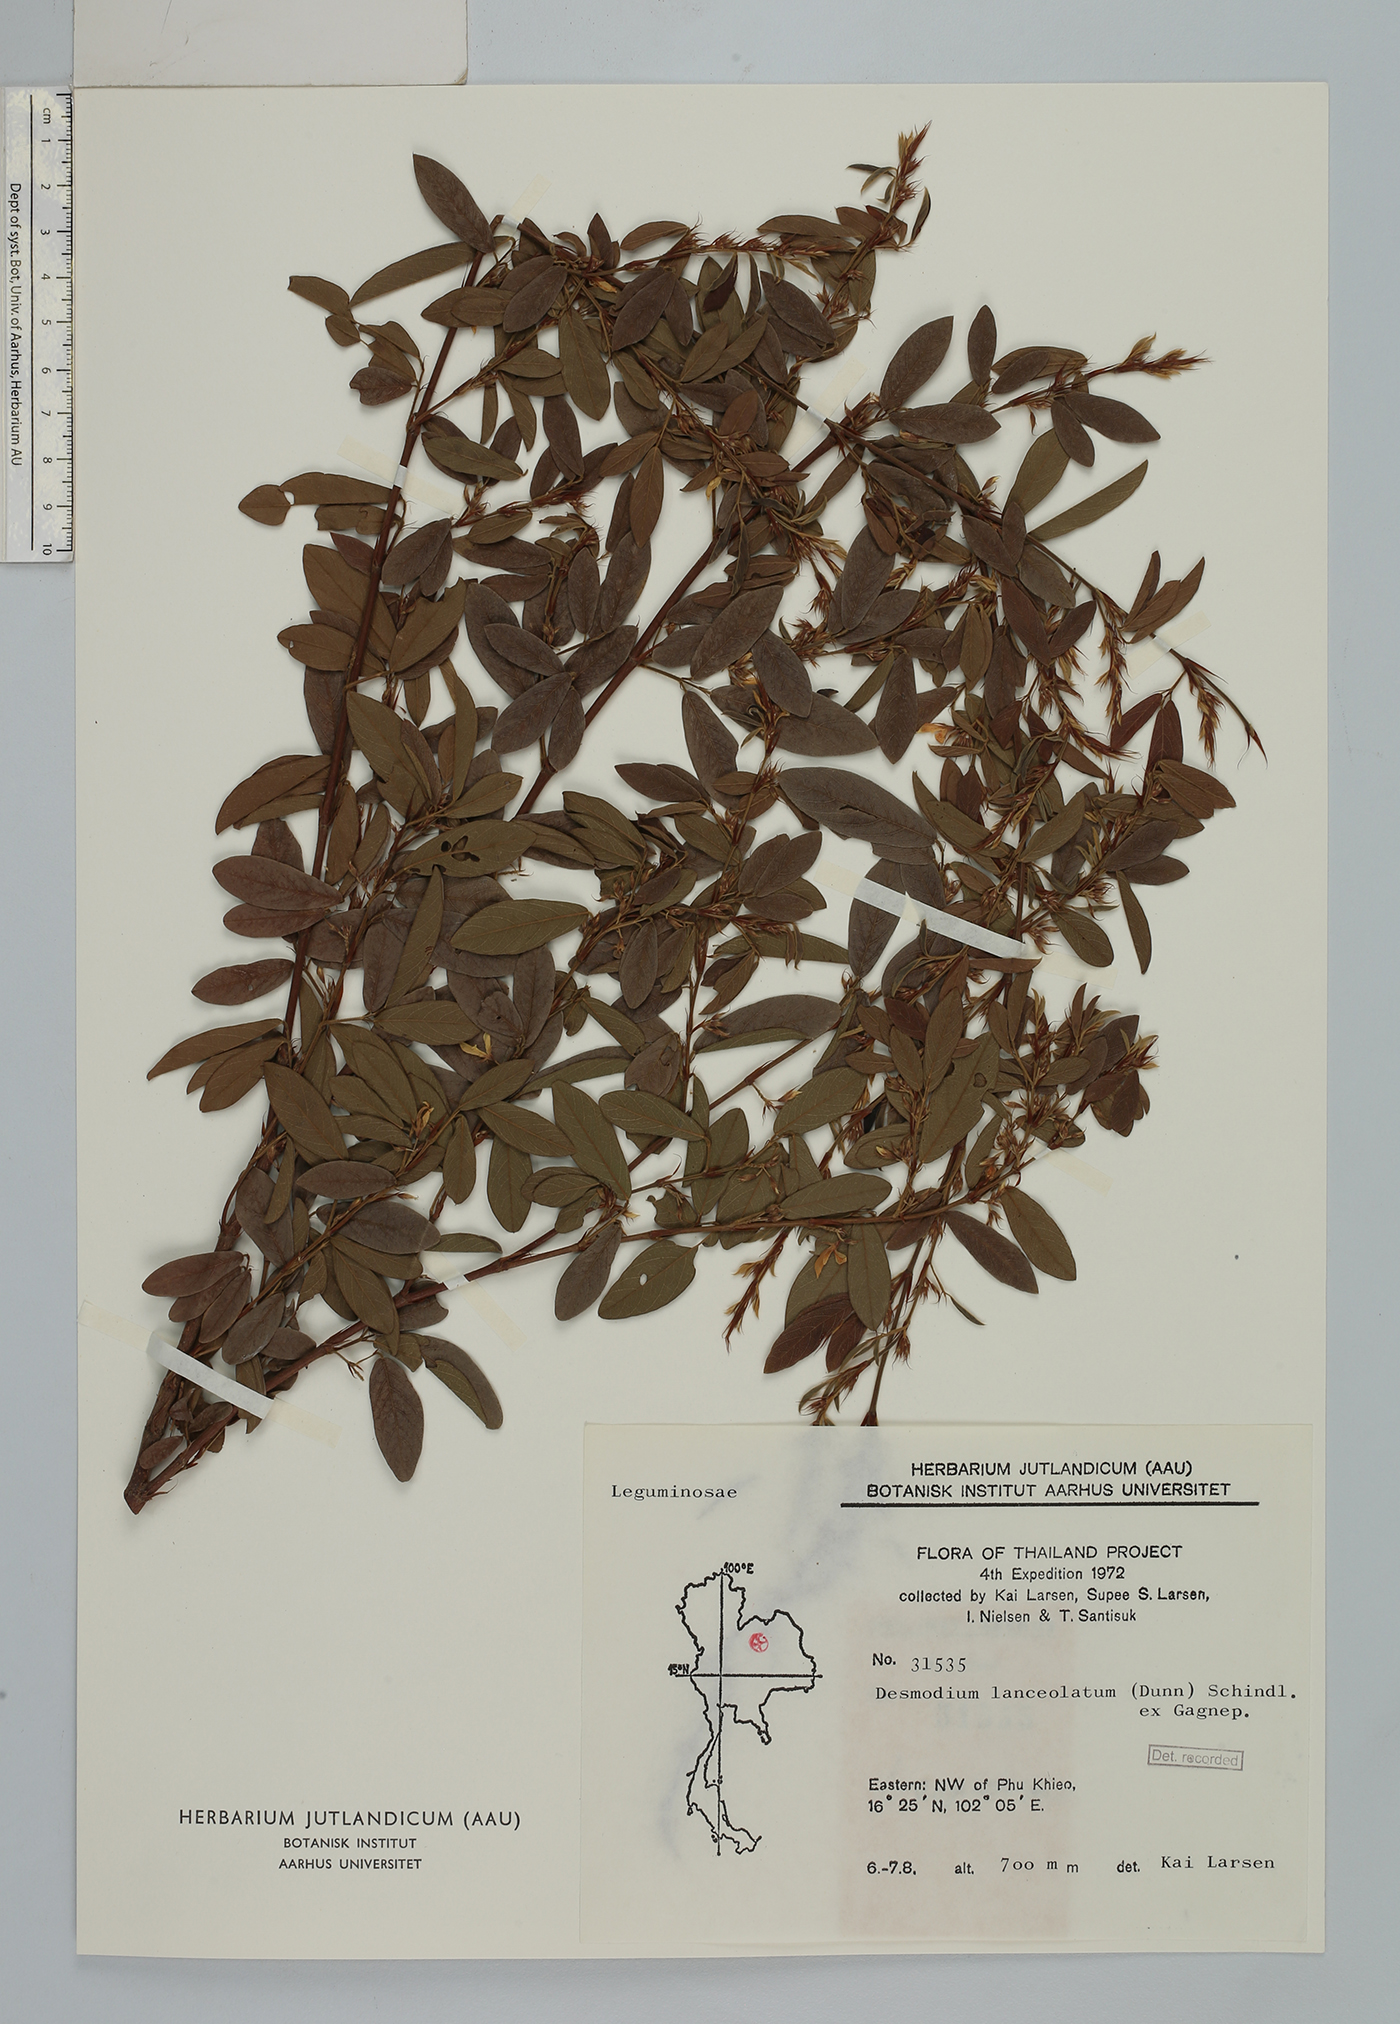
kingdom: Plantae
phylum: Tracheophyta
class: Magnoliopsida
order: Fabales
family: Fabaceae
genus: Dendrolobium
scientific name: Dendrolobium lanceolatum
